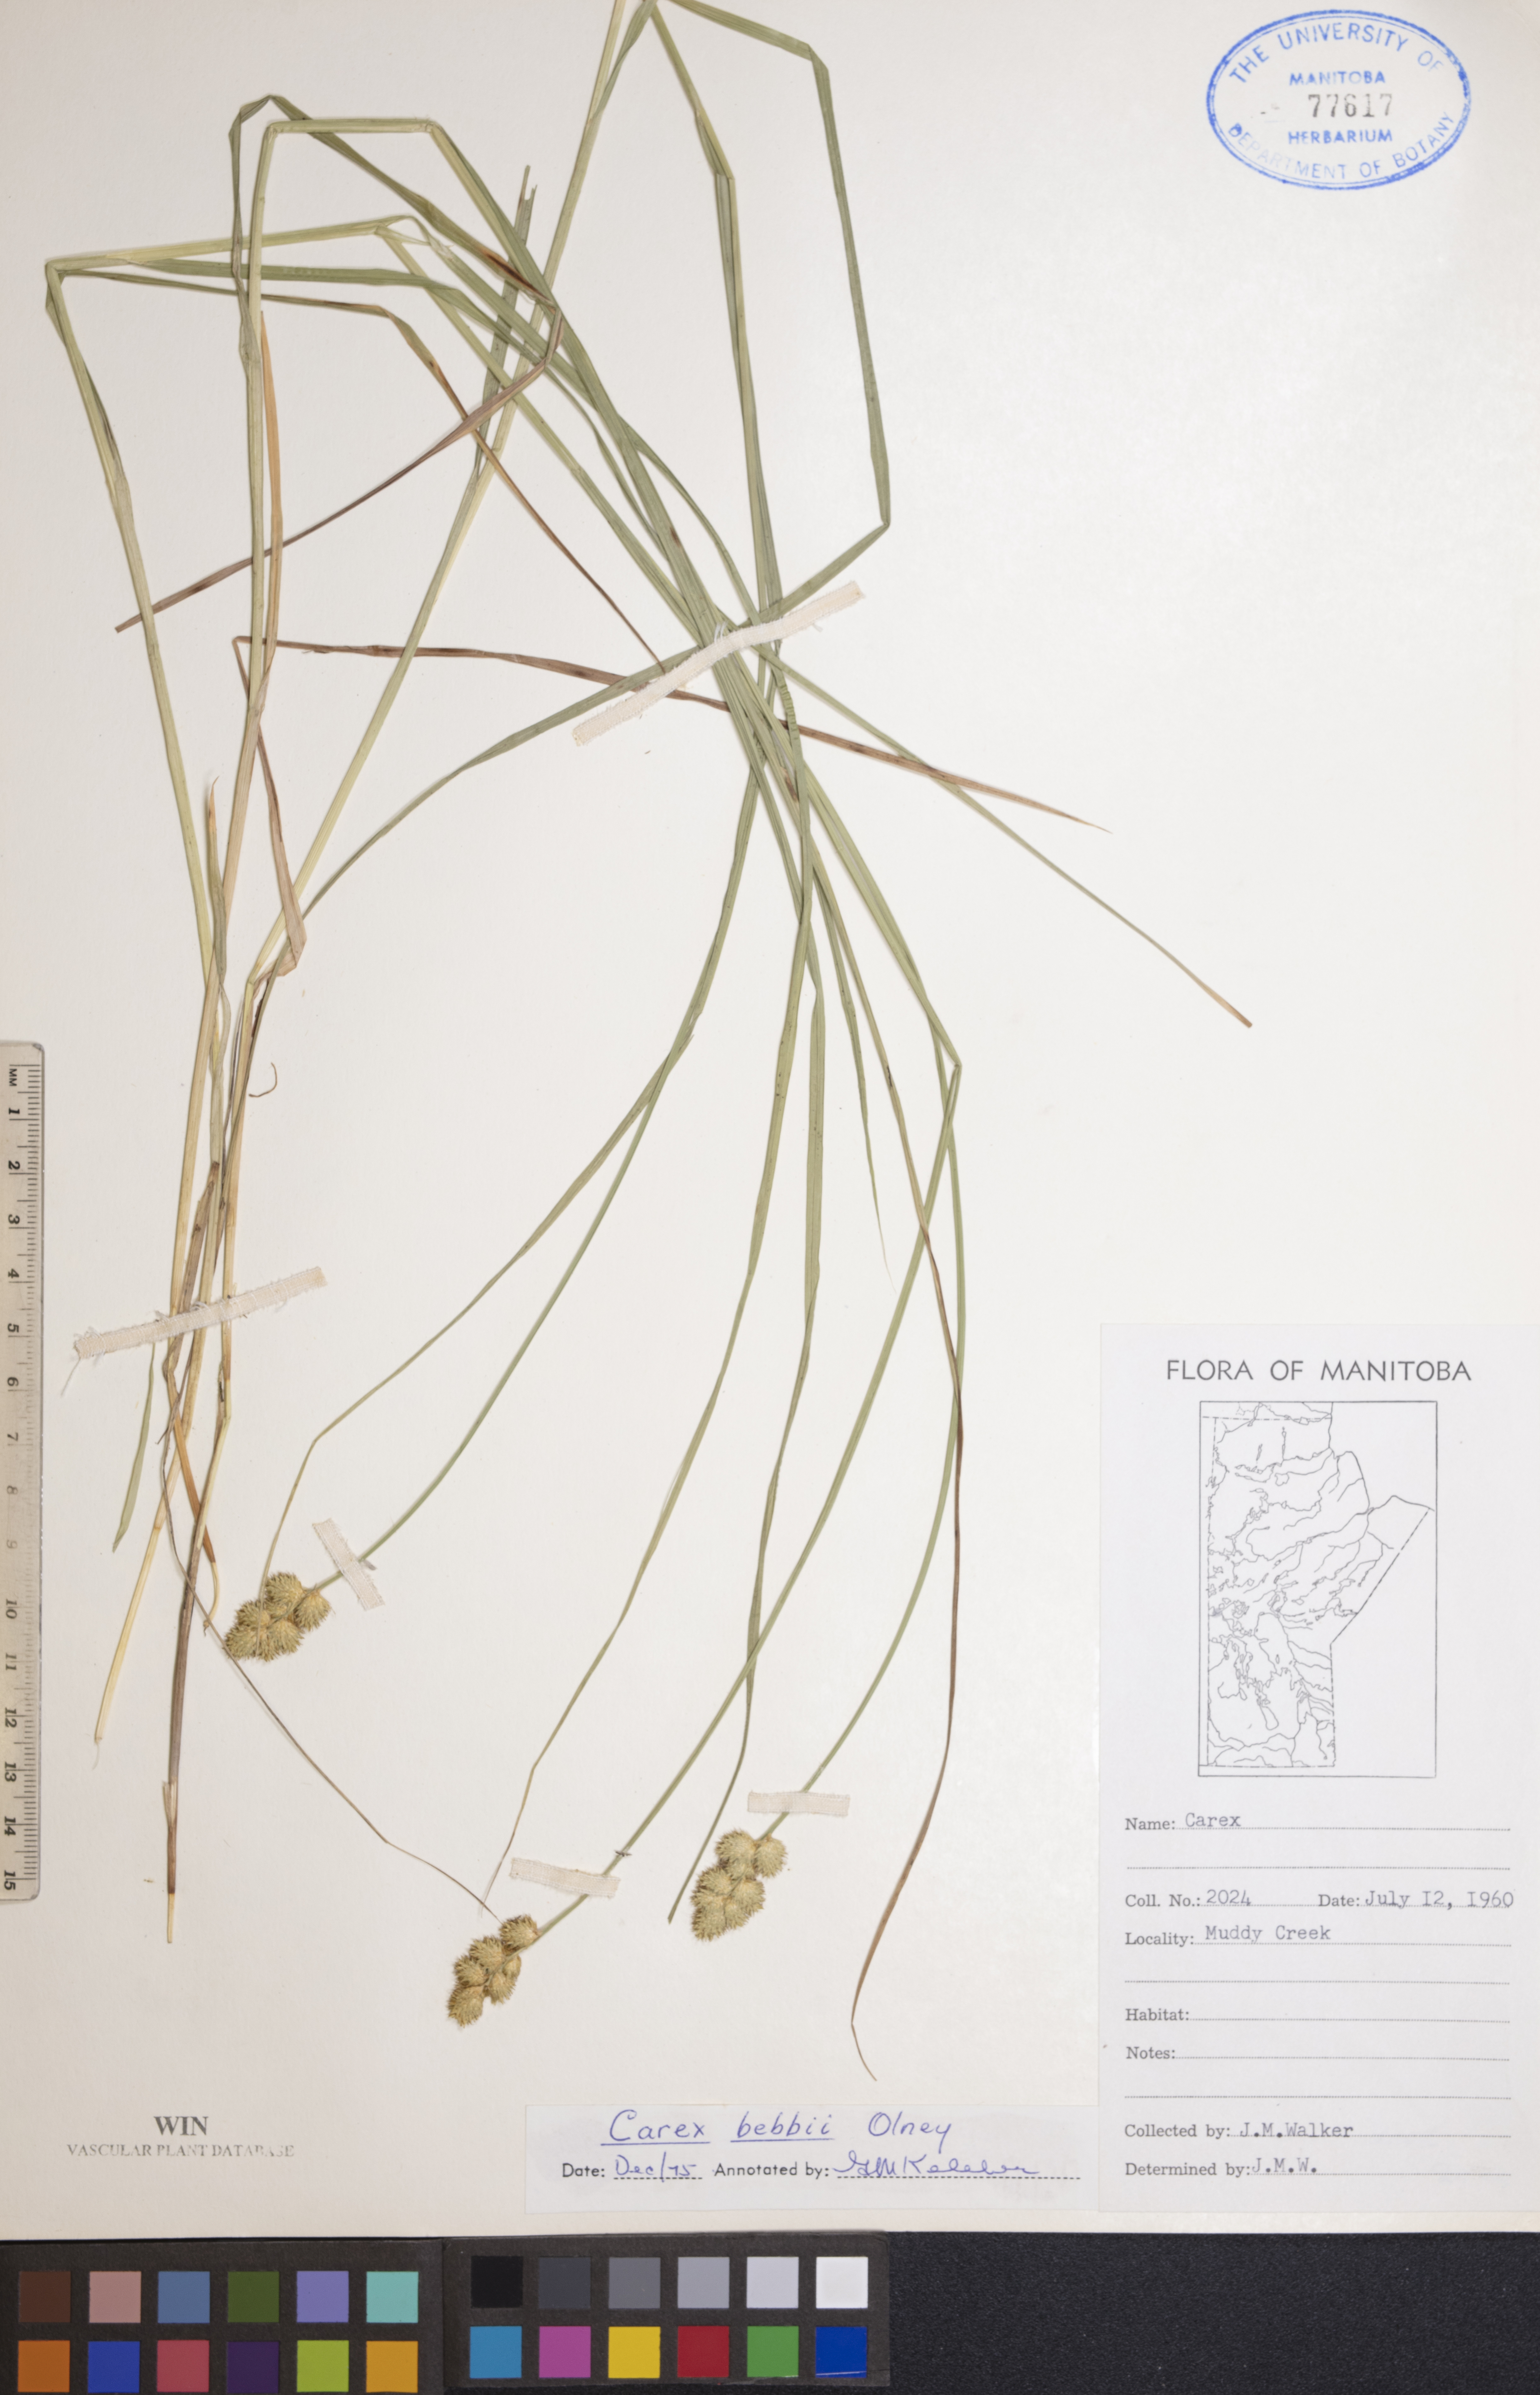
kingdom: Plantae
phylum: Tracheophyta
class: Liliopsida
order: Poales
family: Cyperaceae
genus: Carex
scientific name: Carex bebbii
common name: Bebb's sedge
